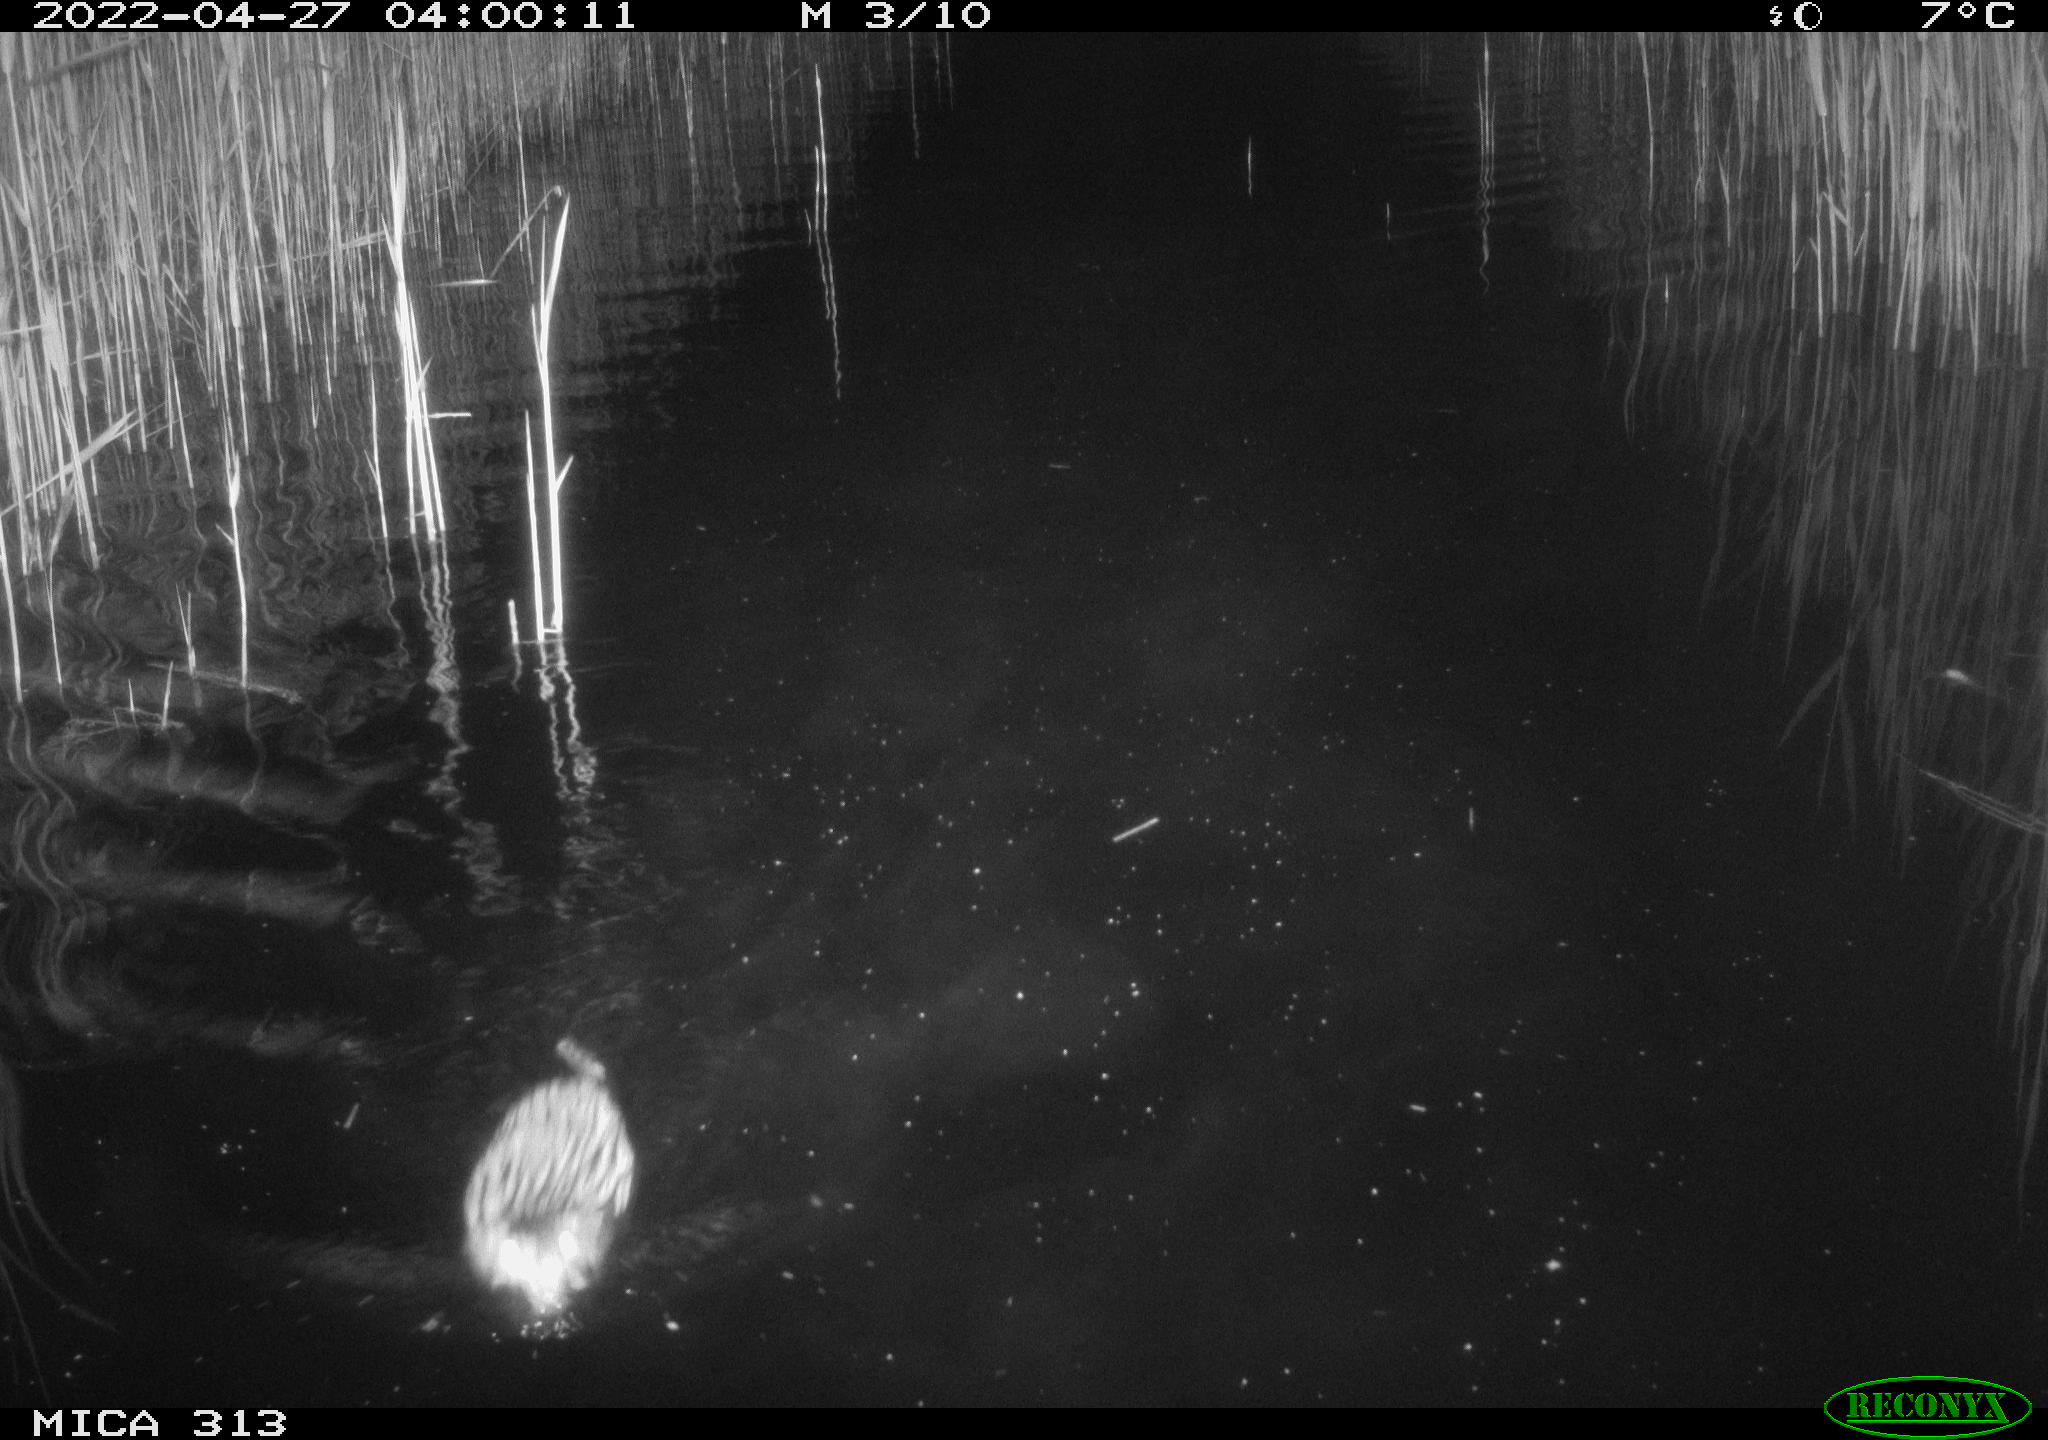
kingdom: Animalia
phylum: Chordata
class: Mammalia
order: Rodentia
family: Cricetidae
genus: Ondatra
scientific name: Ondatra zibethicus
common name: Muskrat
